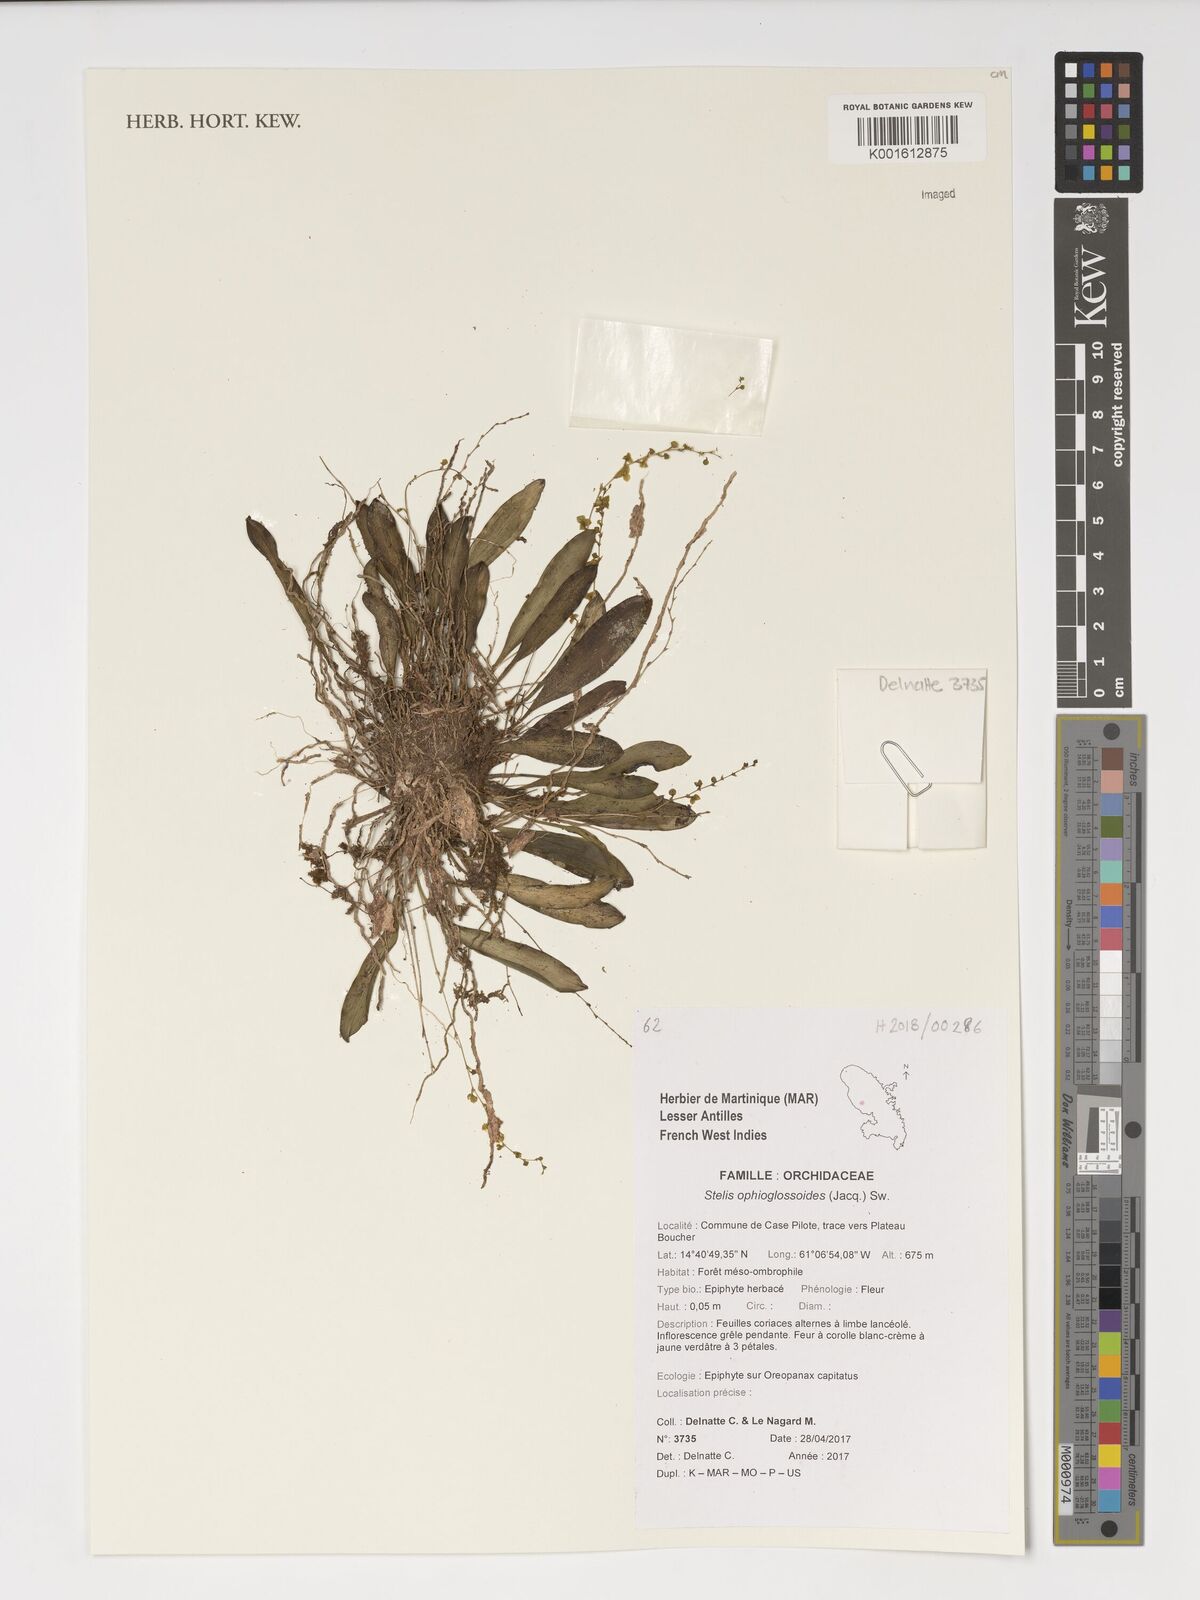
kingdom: Plantae
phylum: Tracheophyta
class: Liliopsida
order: Asparagales
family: Orchidaceae
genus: Stelis
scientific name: Stelis ophioglossoides
